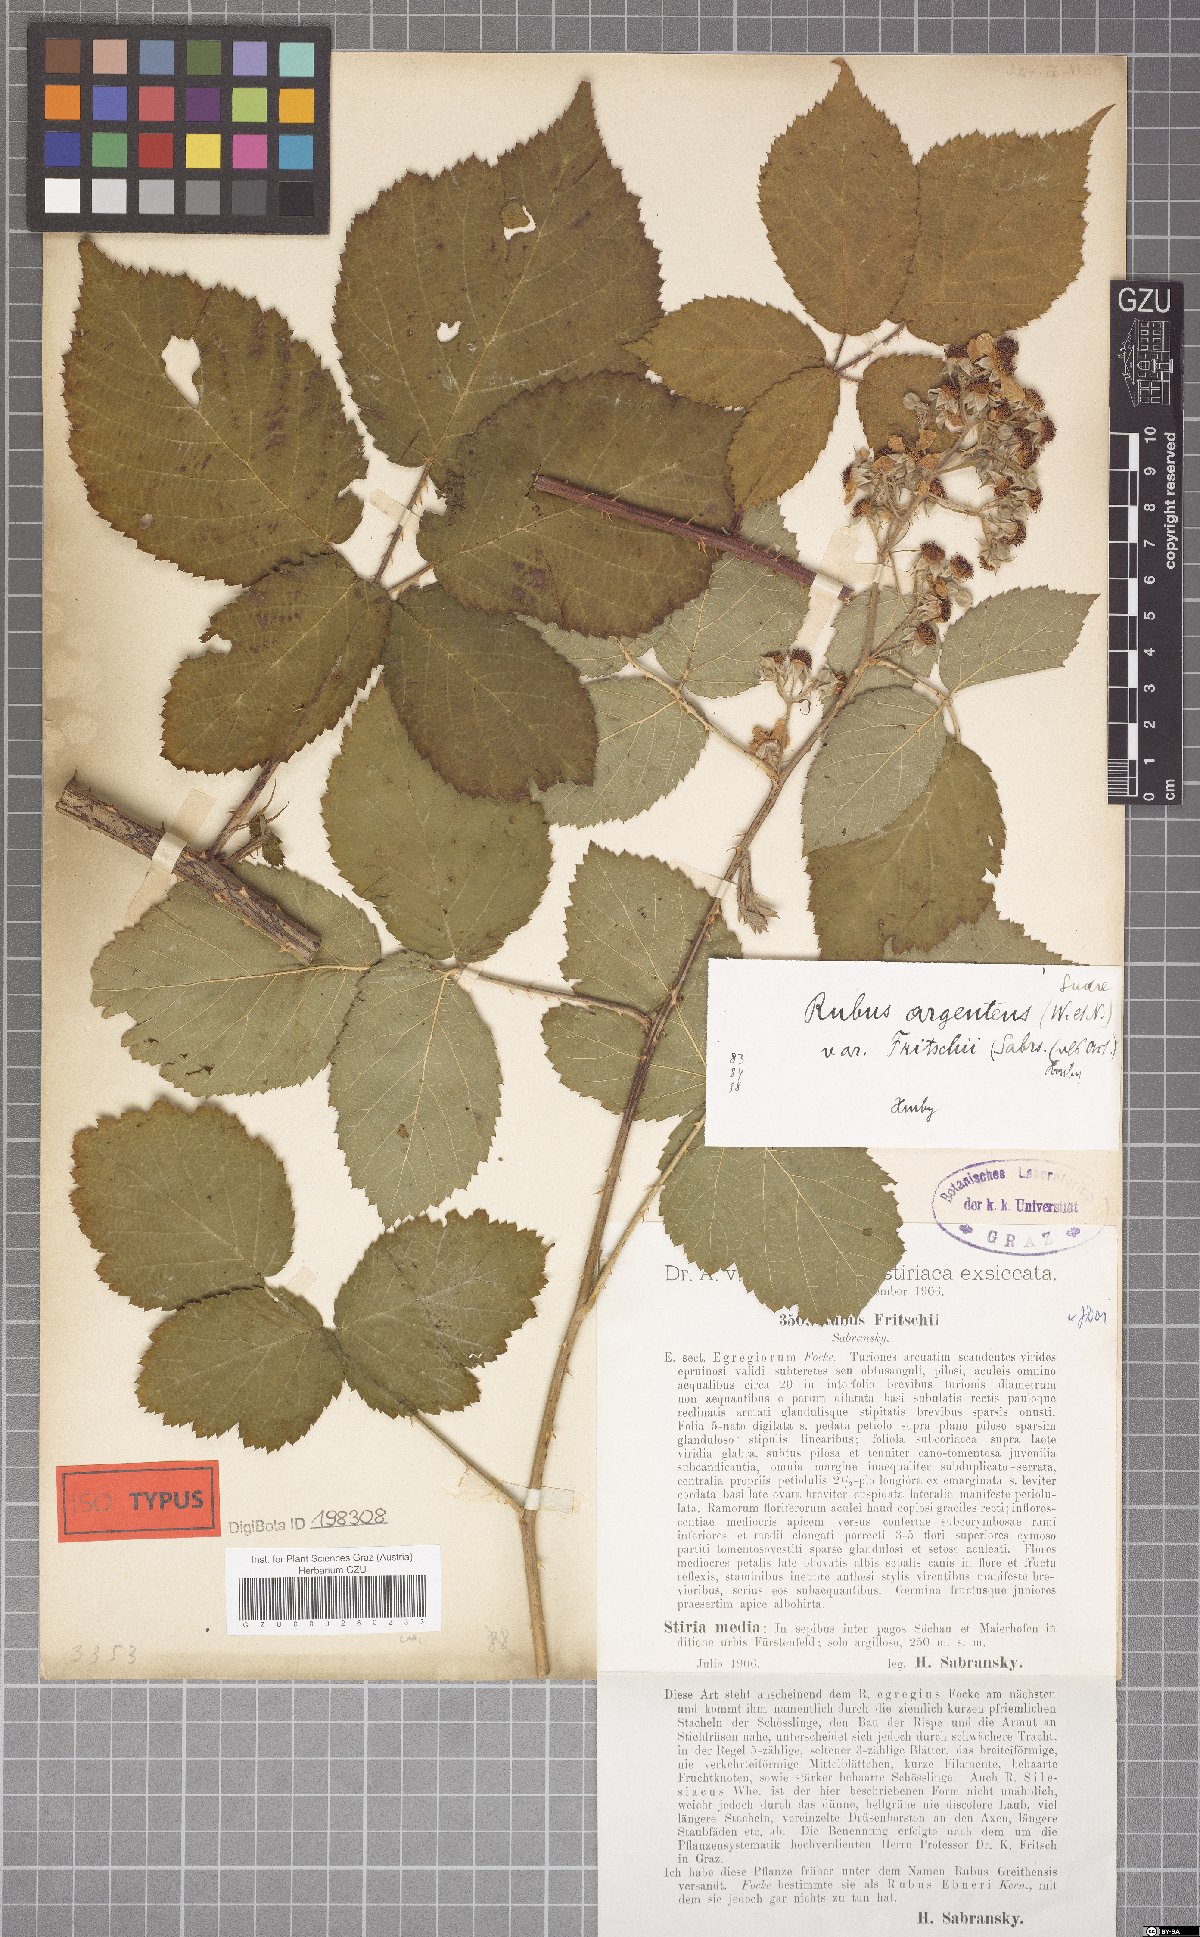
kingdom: Plantae
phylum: Tracheophyta
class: Magnoliopsida
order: Rosales
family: Rosaceae
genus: Rubus
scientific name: Rubus fritschii
